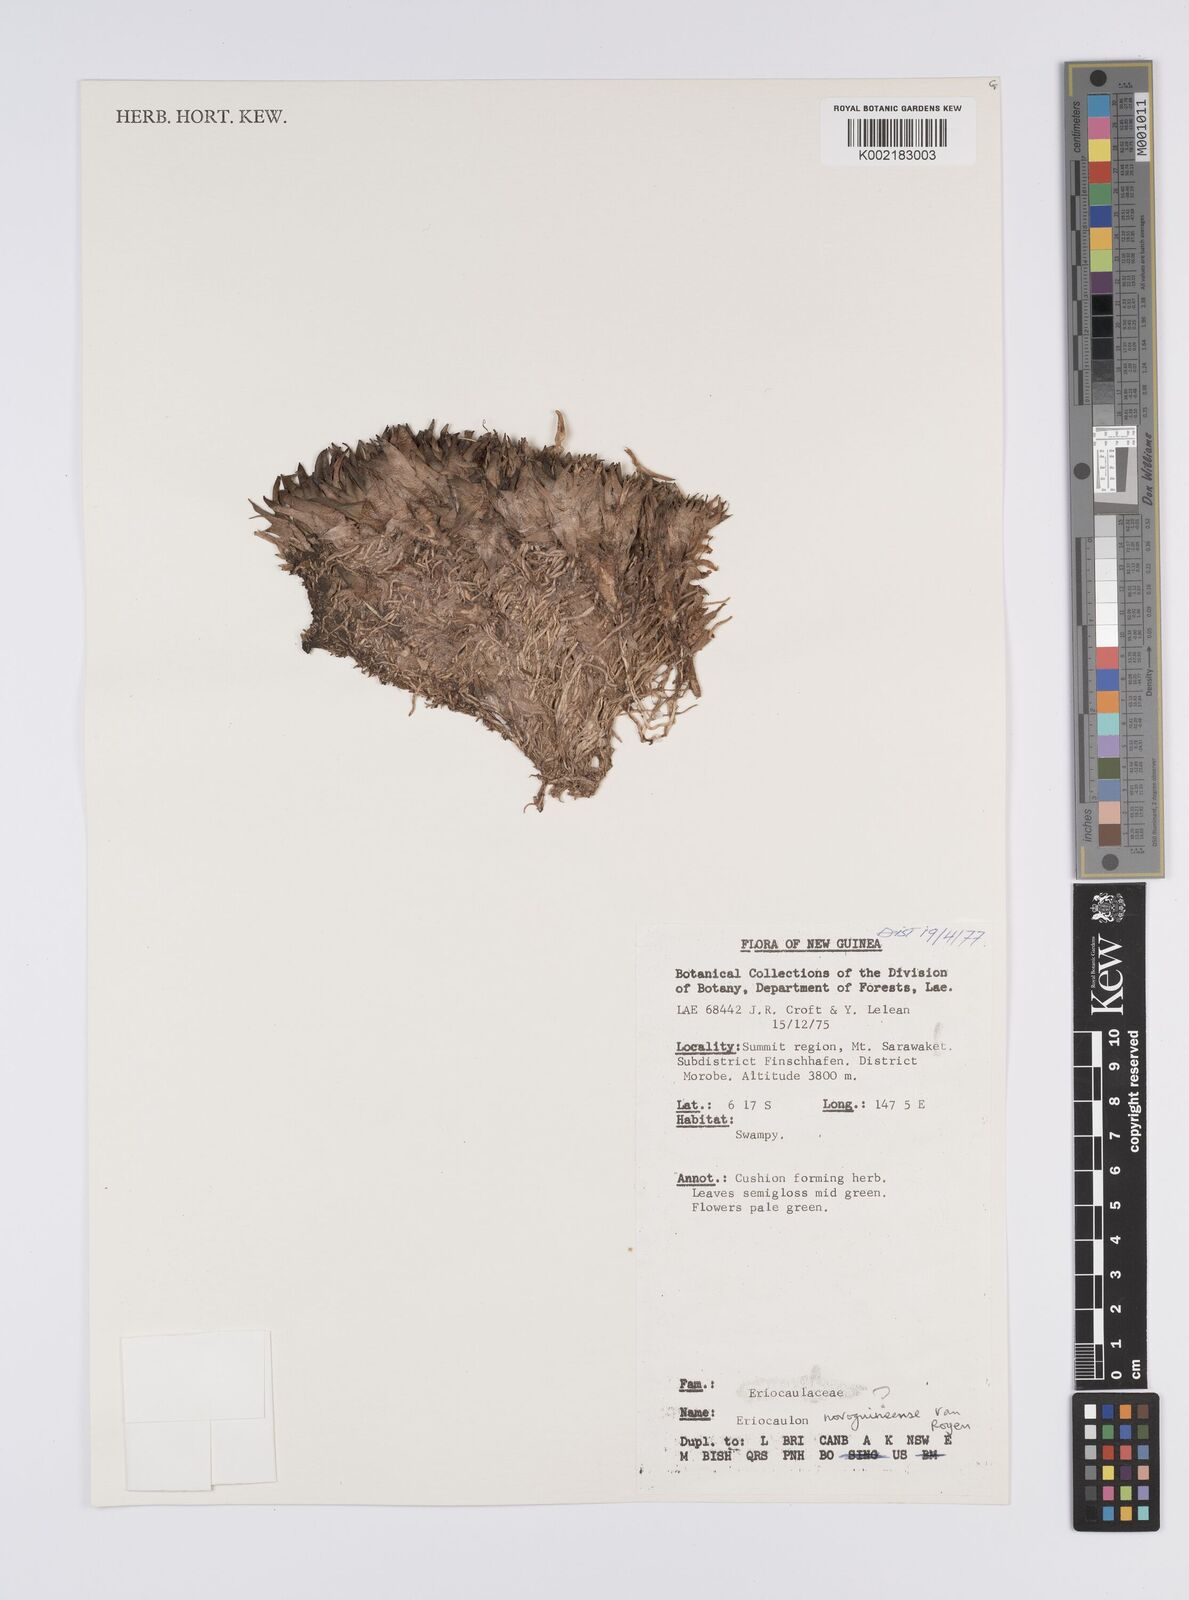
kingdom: Plantae
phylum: Tracheophyta
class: Liliopsida
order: Poales
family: Eriocaulaceae
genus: Eriocaulon
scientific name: Eriocaulon novoguineense
